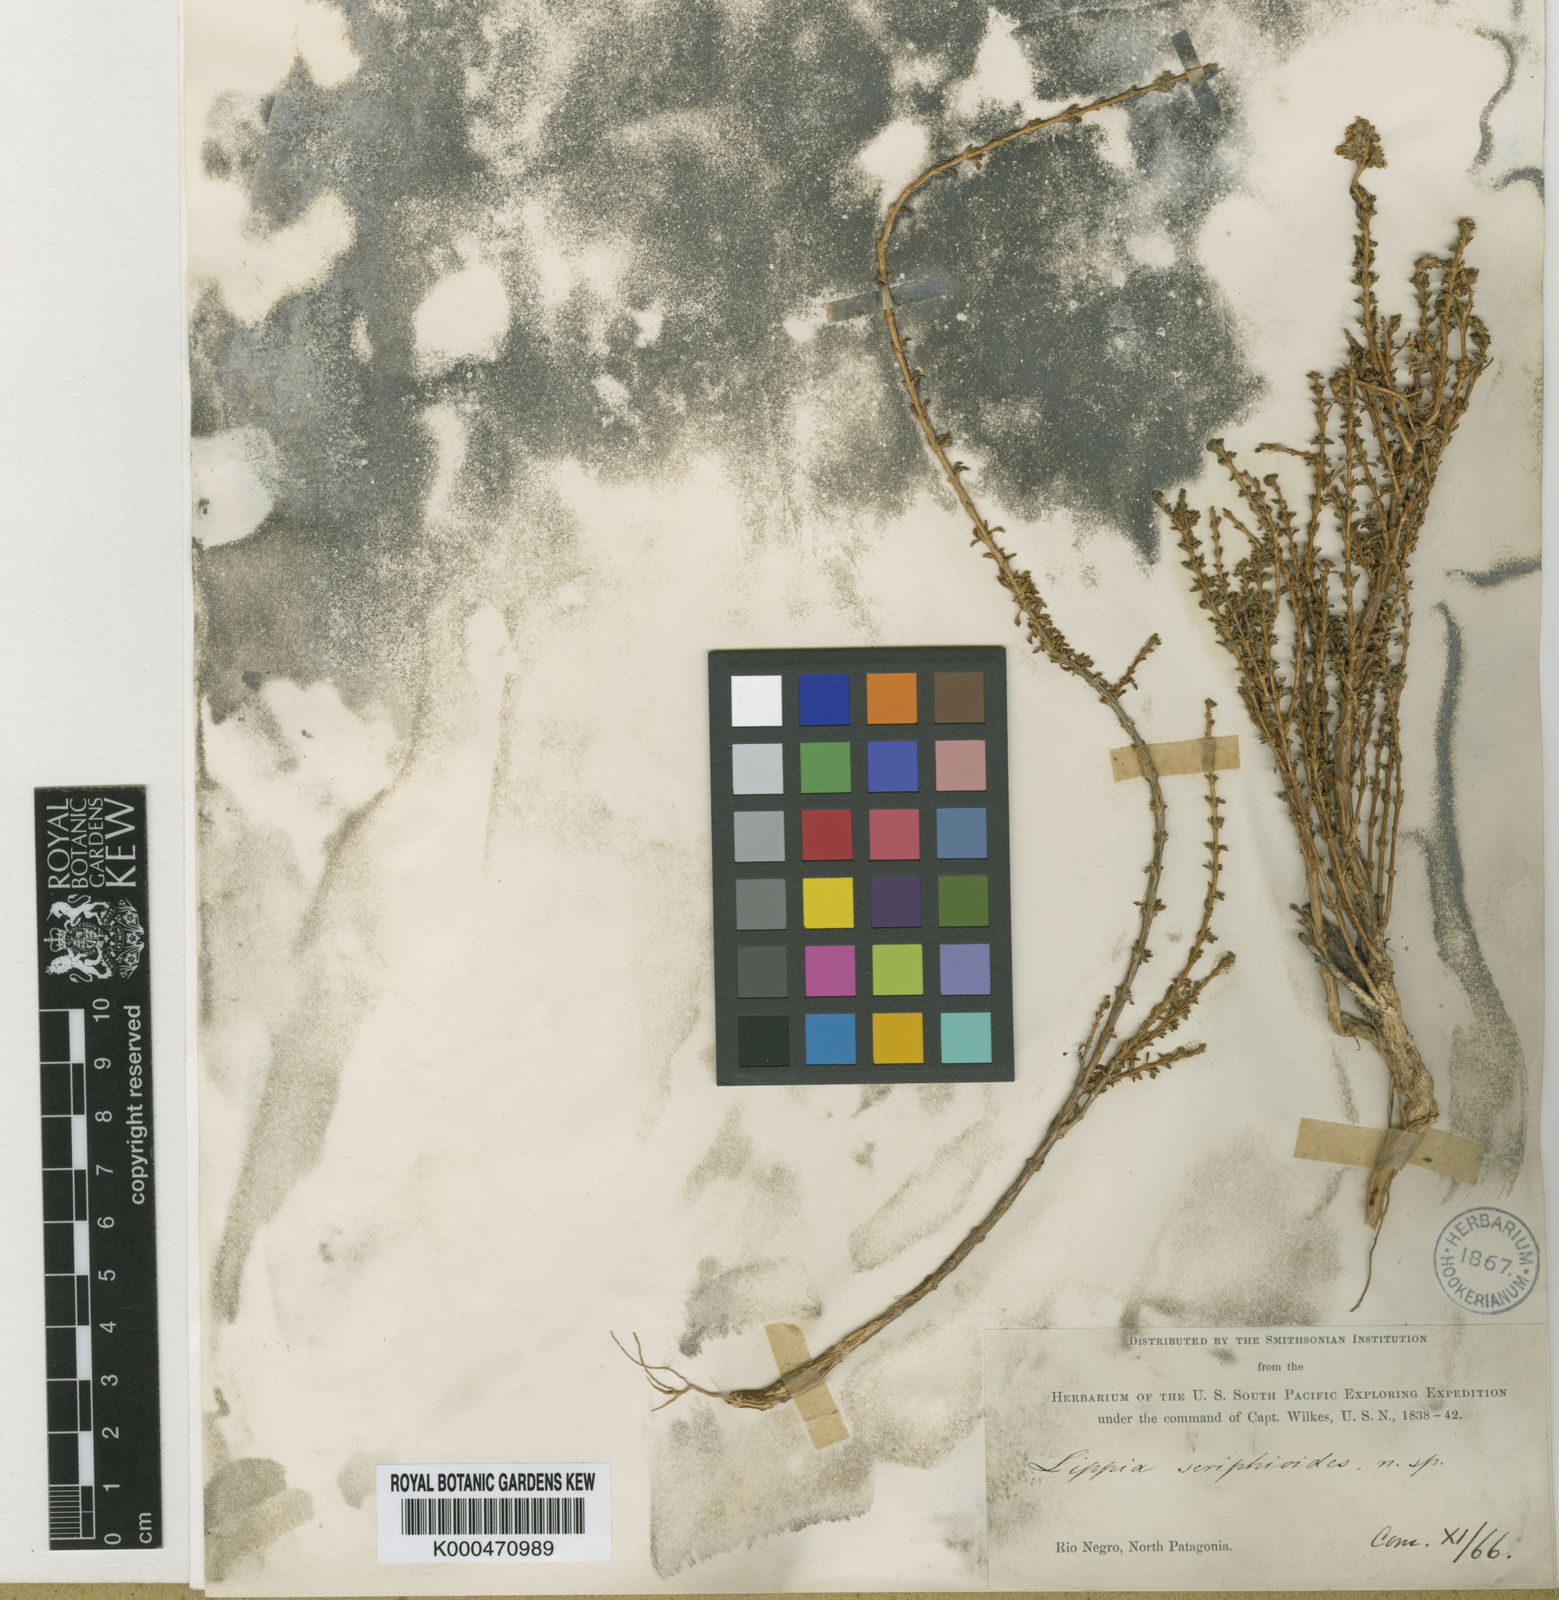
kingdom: Plantae
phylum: Tracheophyta
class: Magnoliopsida
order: Lamiales
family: Verbenaceae
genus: Acantholippia
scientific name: Acantholippia seriphioides
